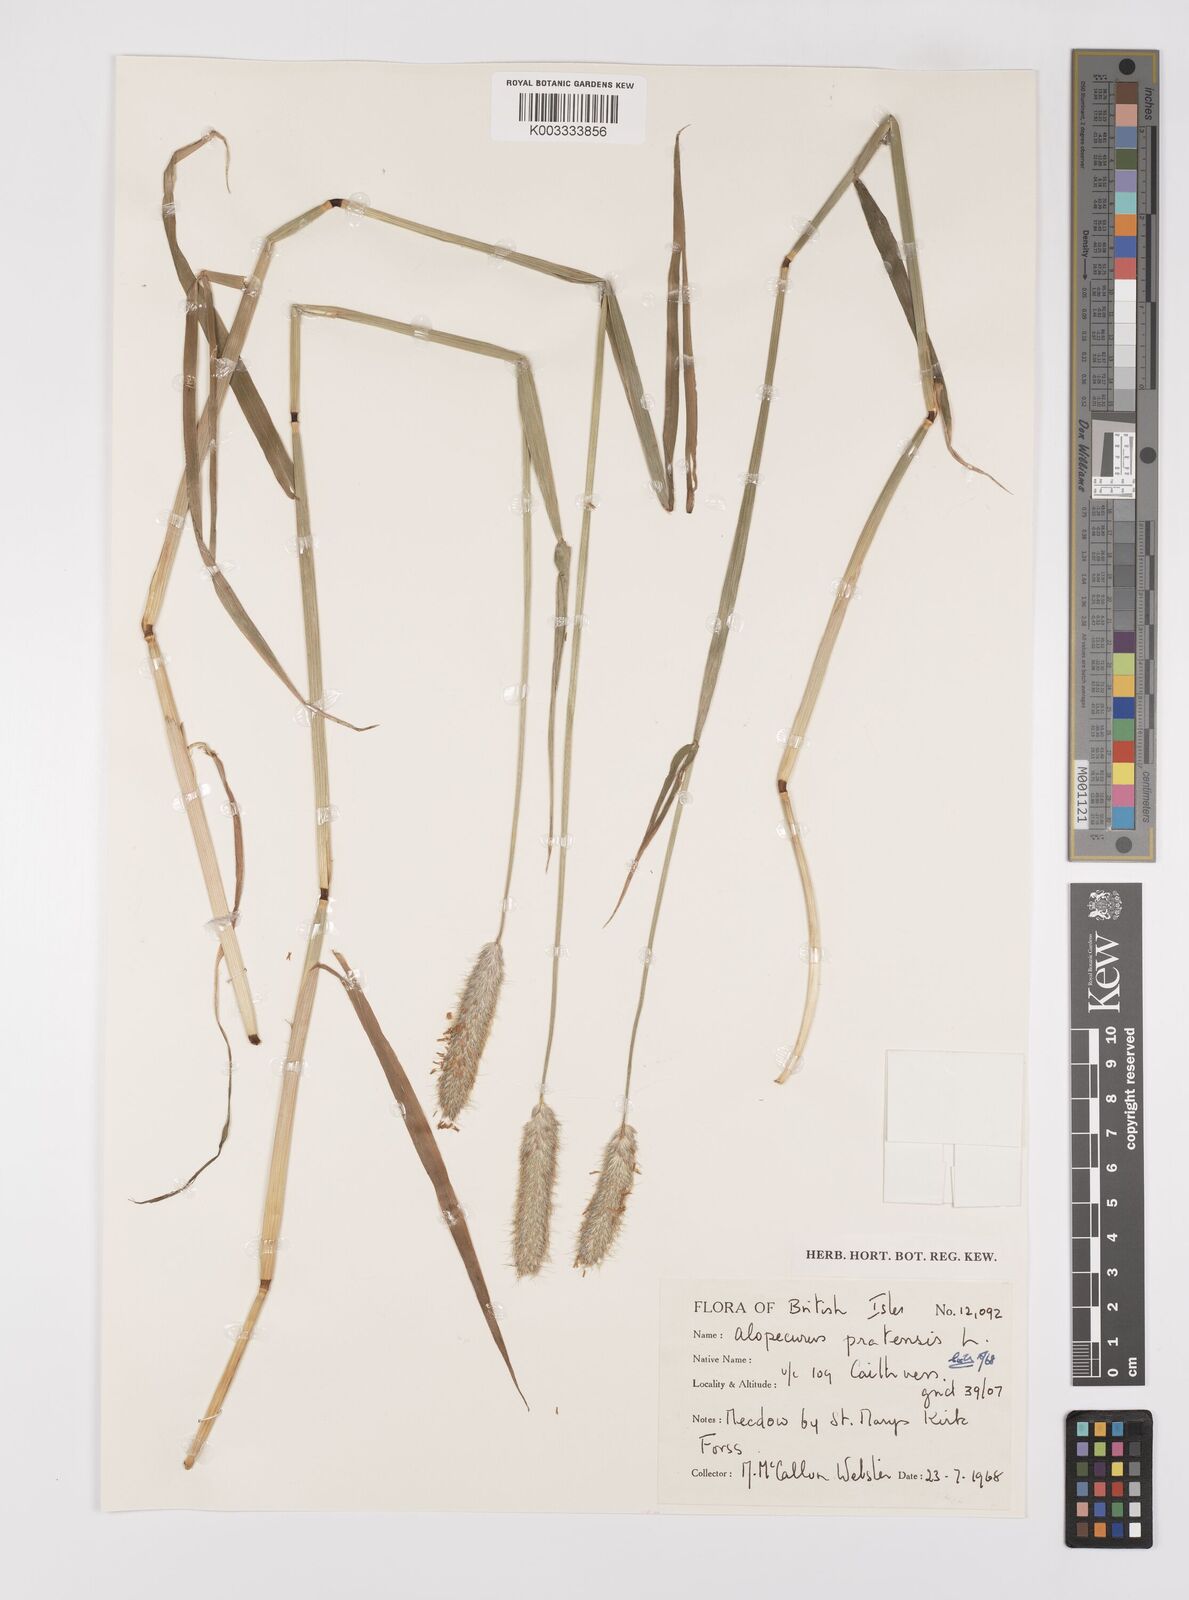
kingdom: Plantae
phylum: Tracheophyta
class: Liliopsida
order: Poales
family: Poaceae
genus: Alopecurus
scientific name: Alopecurus pratensis
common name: Meadow foxtail
